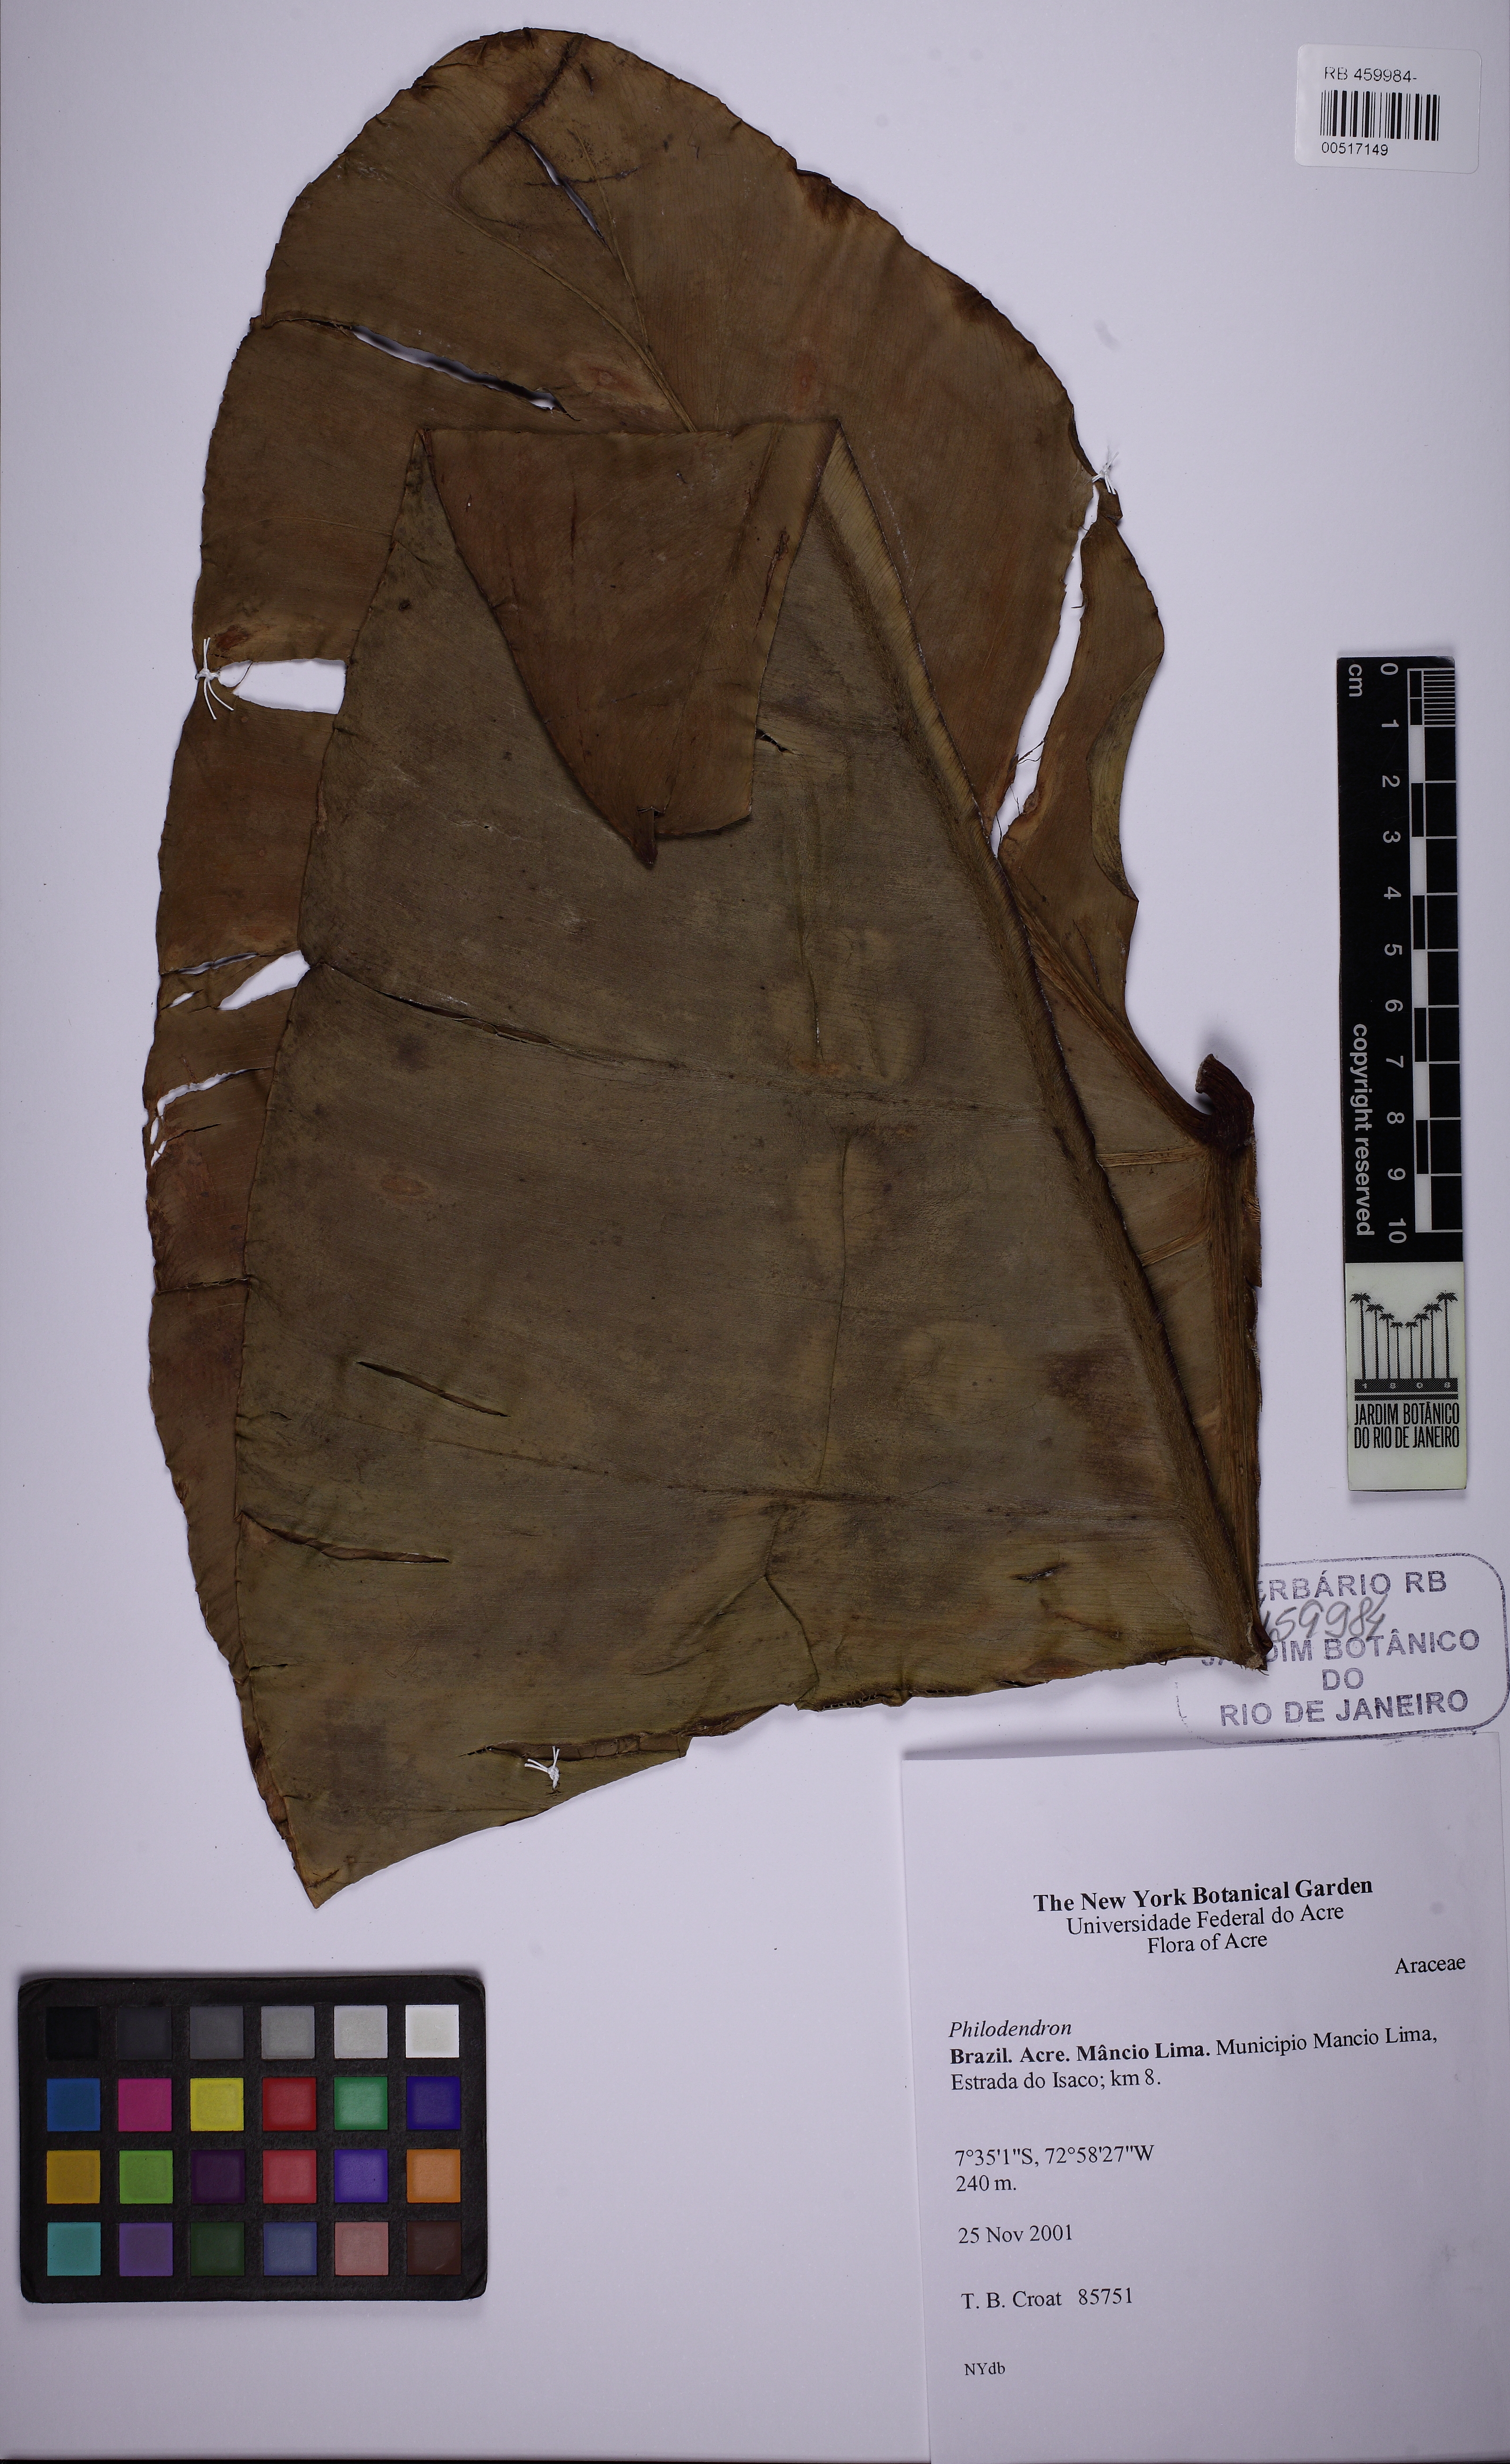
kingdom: Plantae
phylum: Tracheophyta
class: Liliopsida
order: Alismatales
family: Araceae
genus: Philodendron
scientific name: Philodendron
